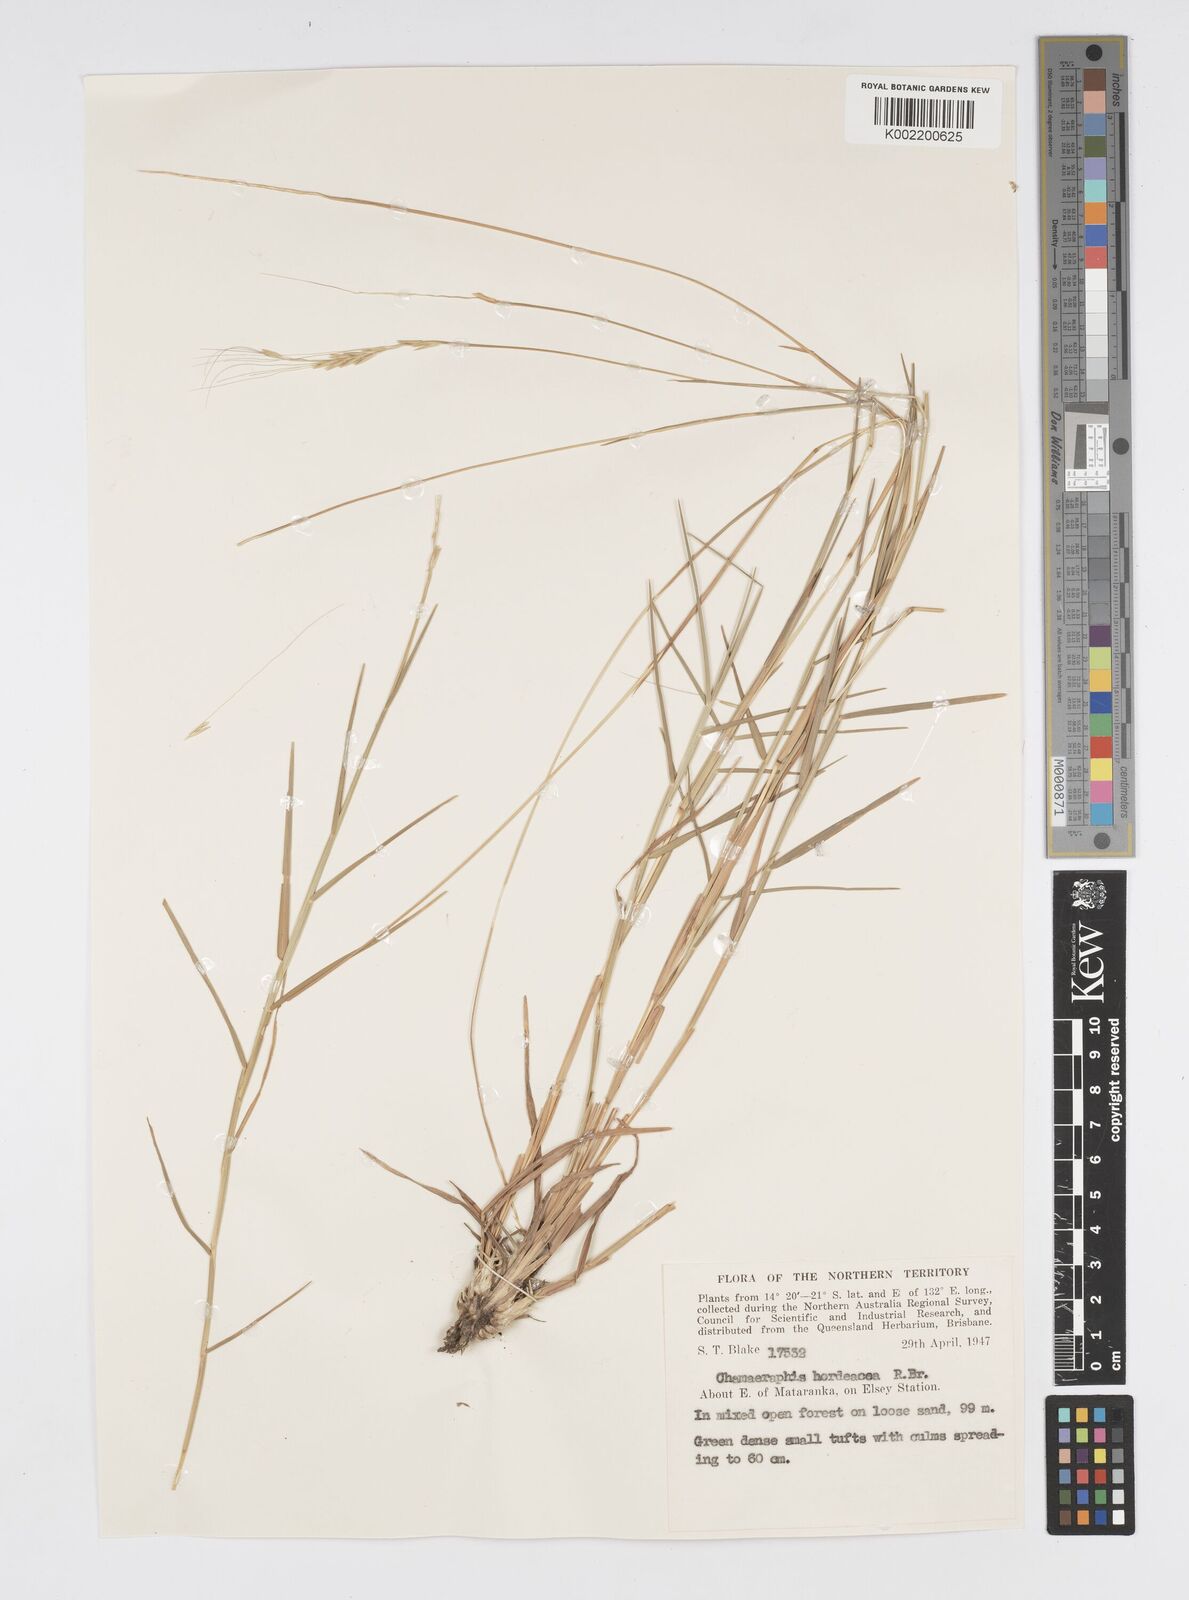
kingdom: Plantae
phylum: Tracheophyta
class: Liliopsida
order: Poales
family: Poaceae
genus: Chamaeraphis
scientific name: Chamaeraphis hordeacea
